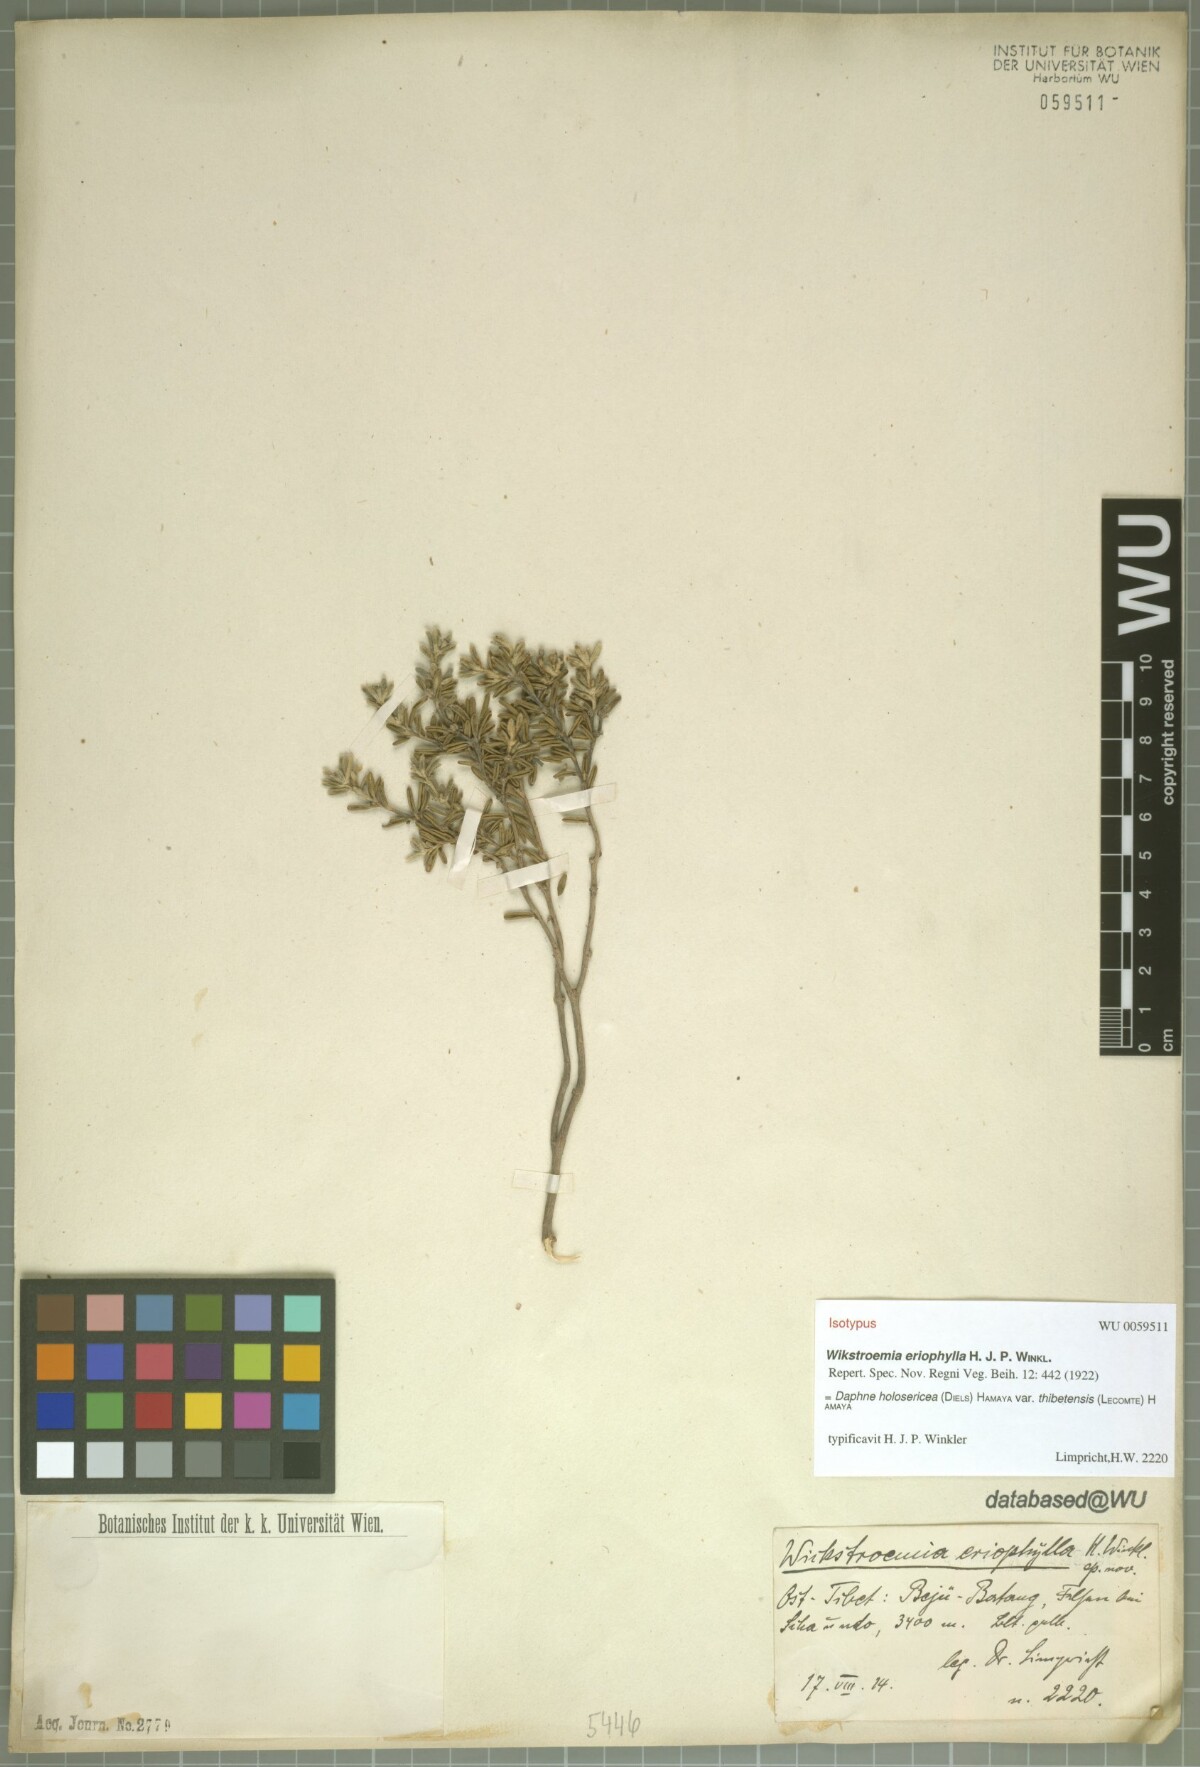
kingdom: Plantae
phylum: Tracheophyta
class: Magnoliopsida
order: Malvales
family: Thymelaeaceae
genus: Wikstroemia
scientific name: Wikstroemia thibetensis
